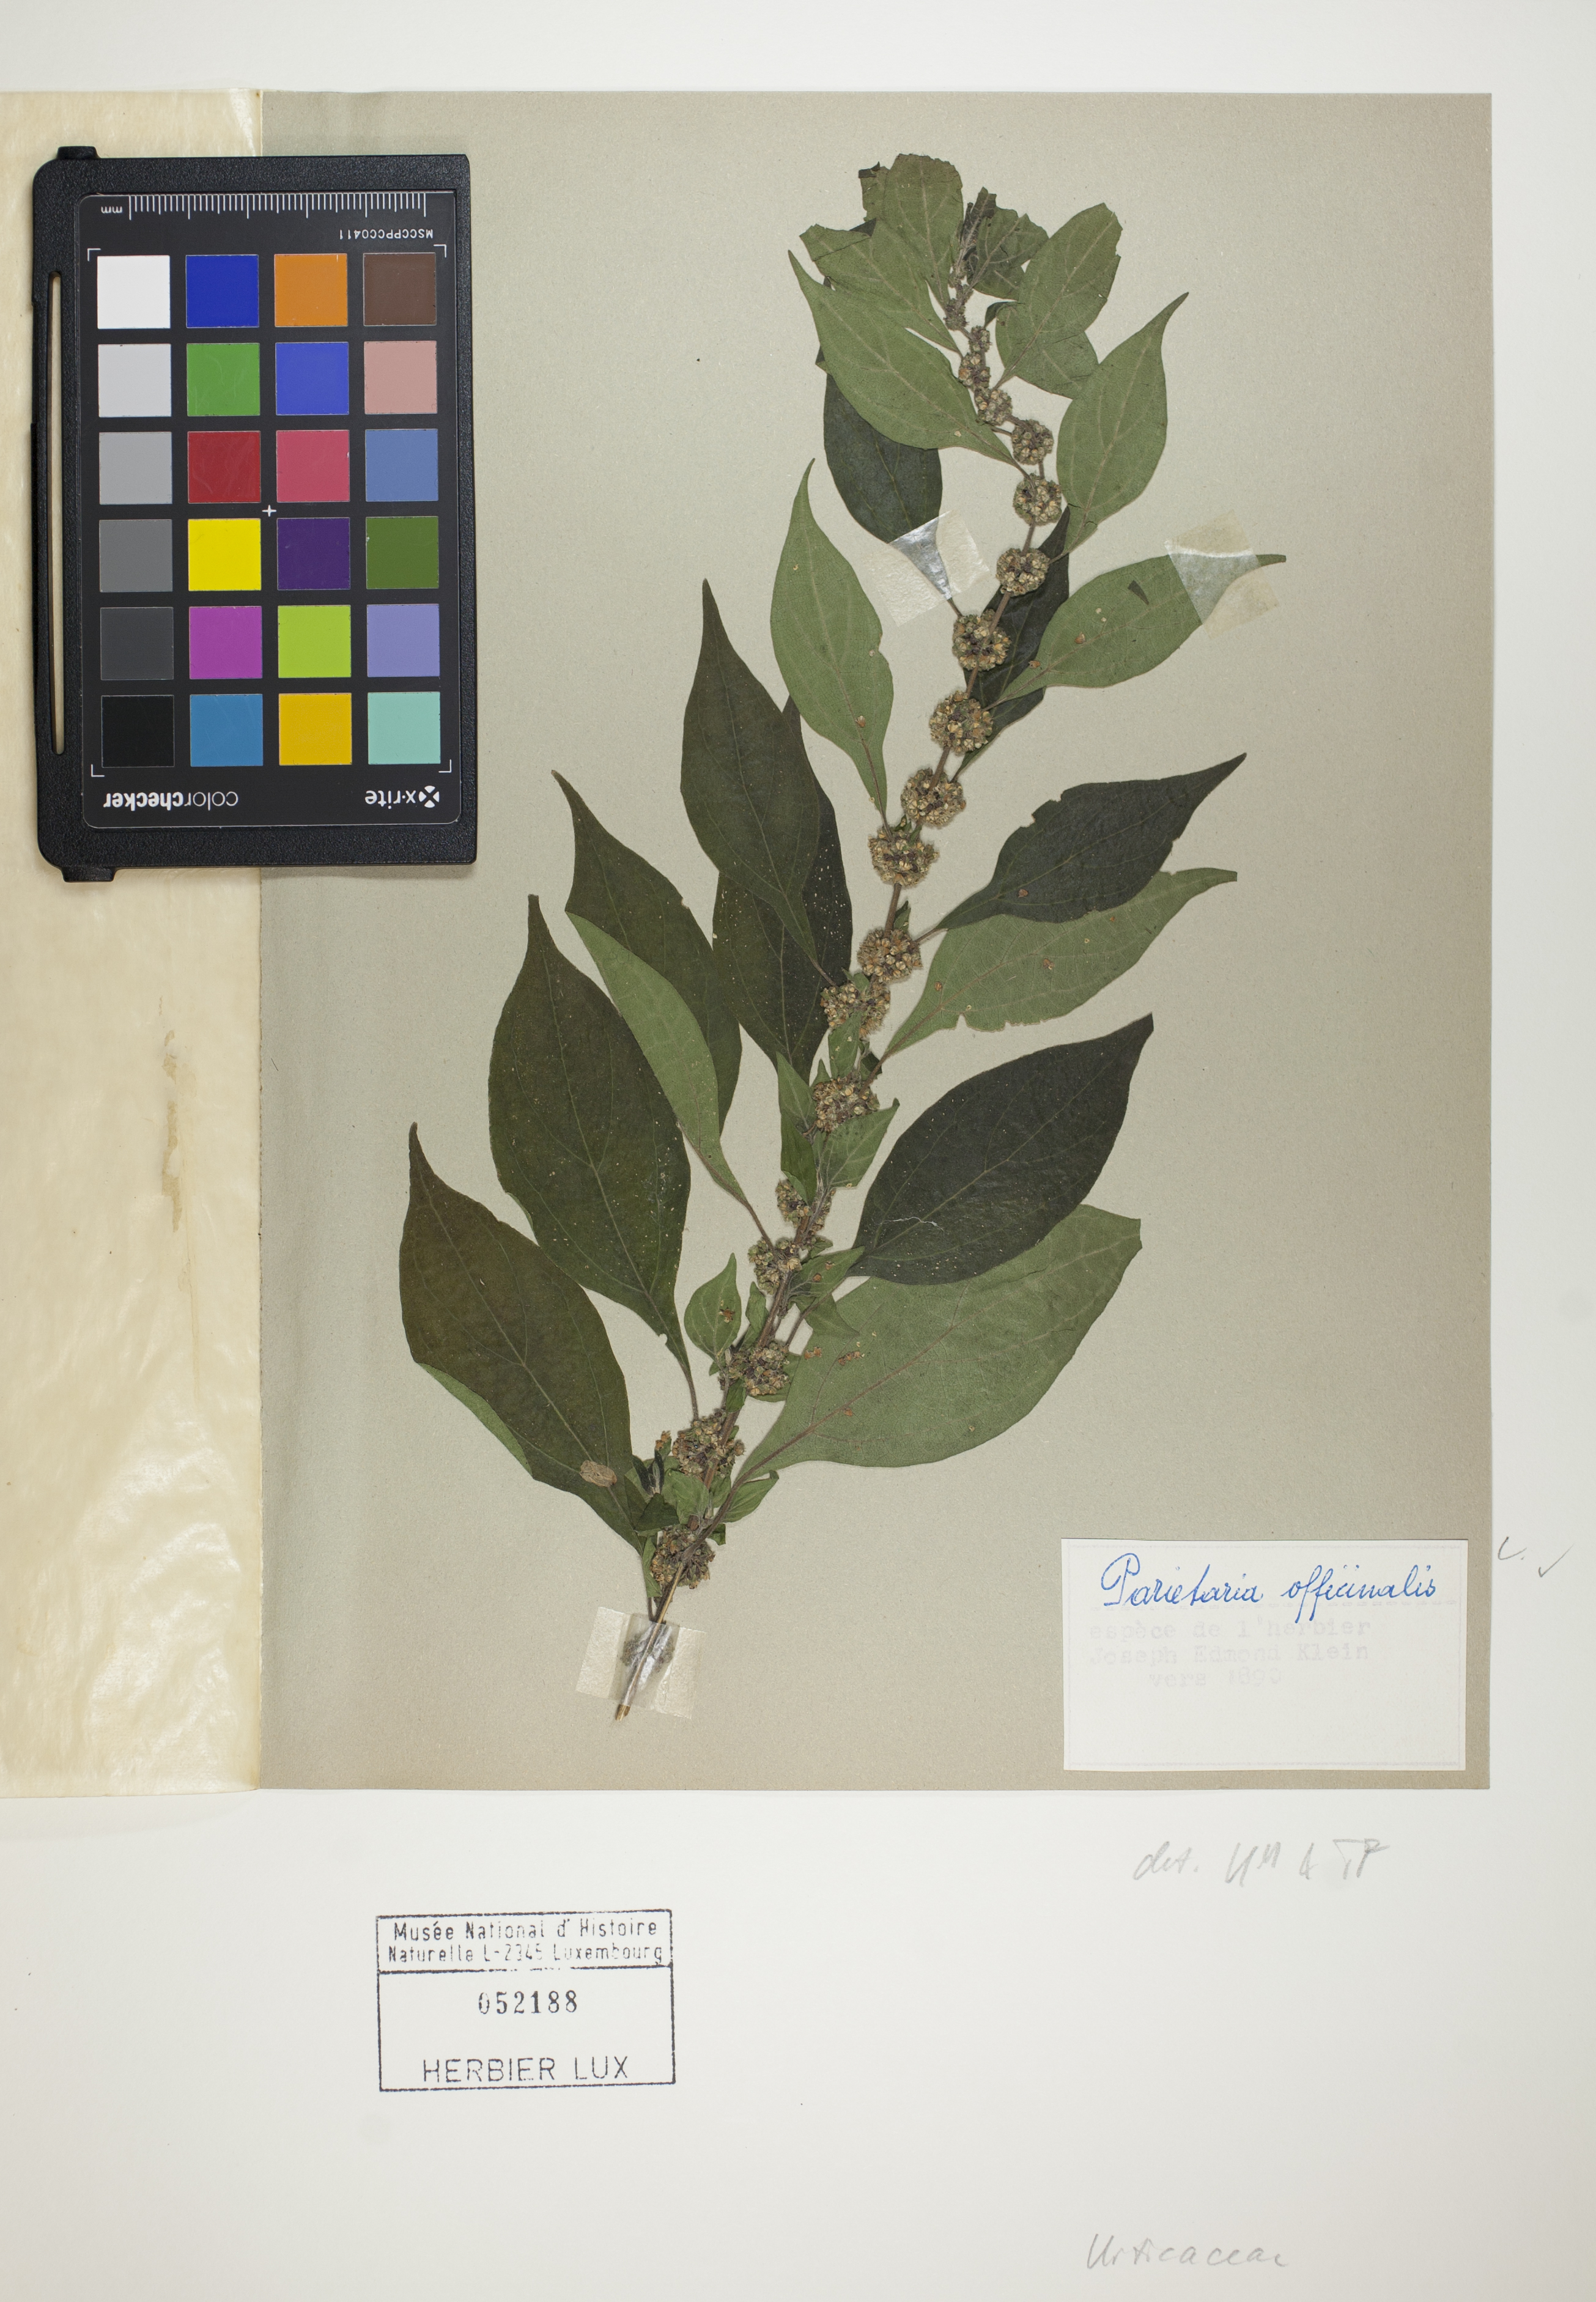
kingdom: Plantae
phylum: Tracheophyta
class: Magnoliopsida
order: Rosales
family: Urticaceae
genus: Parietaria
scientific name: Parietaria officinalis
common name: Eastern pellitory-of-the-wall
